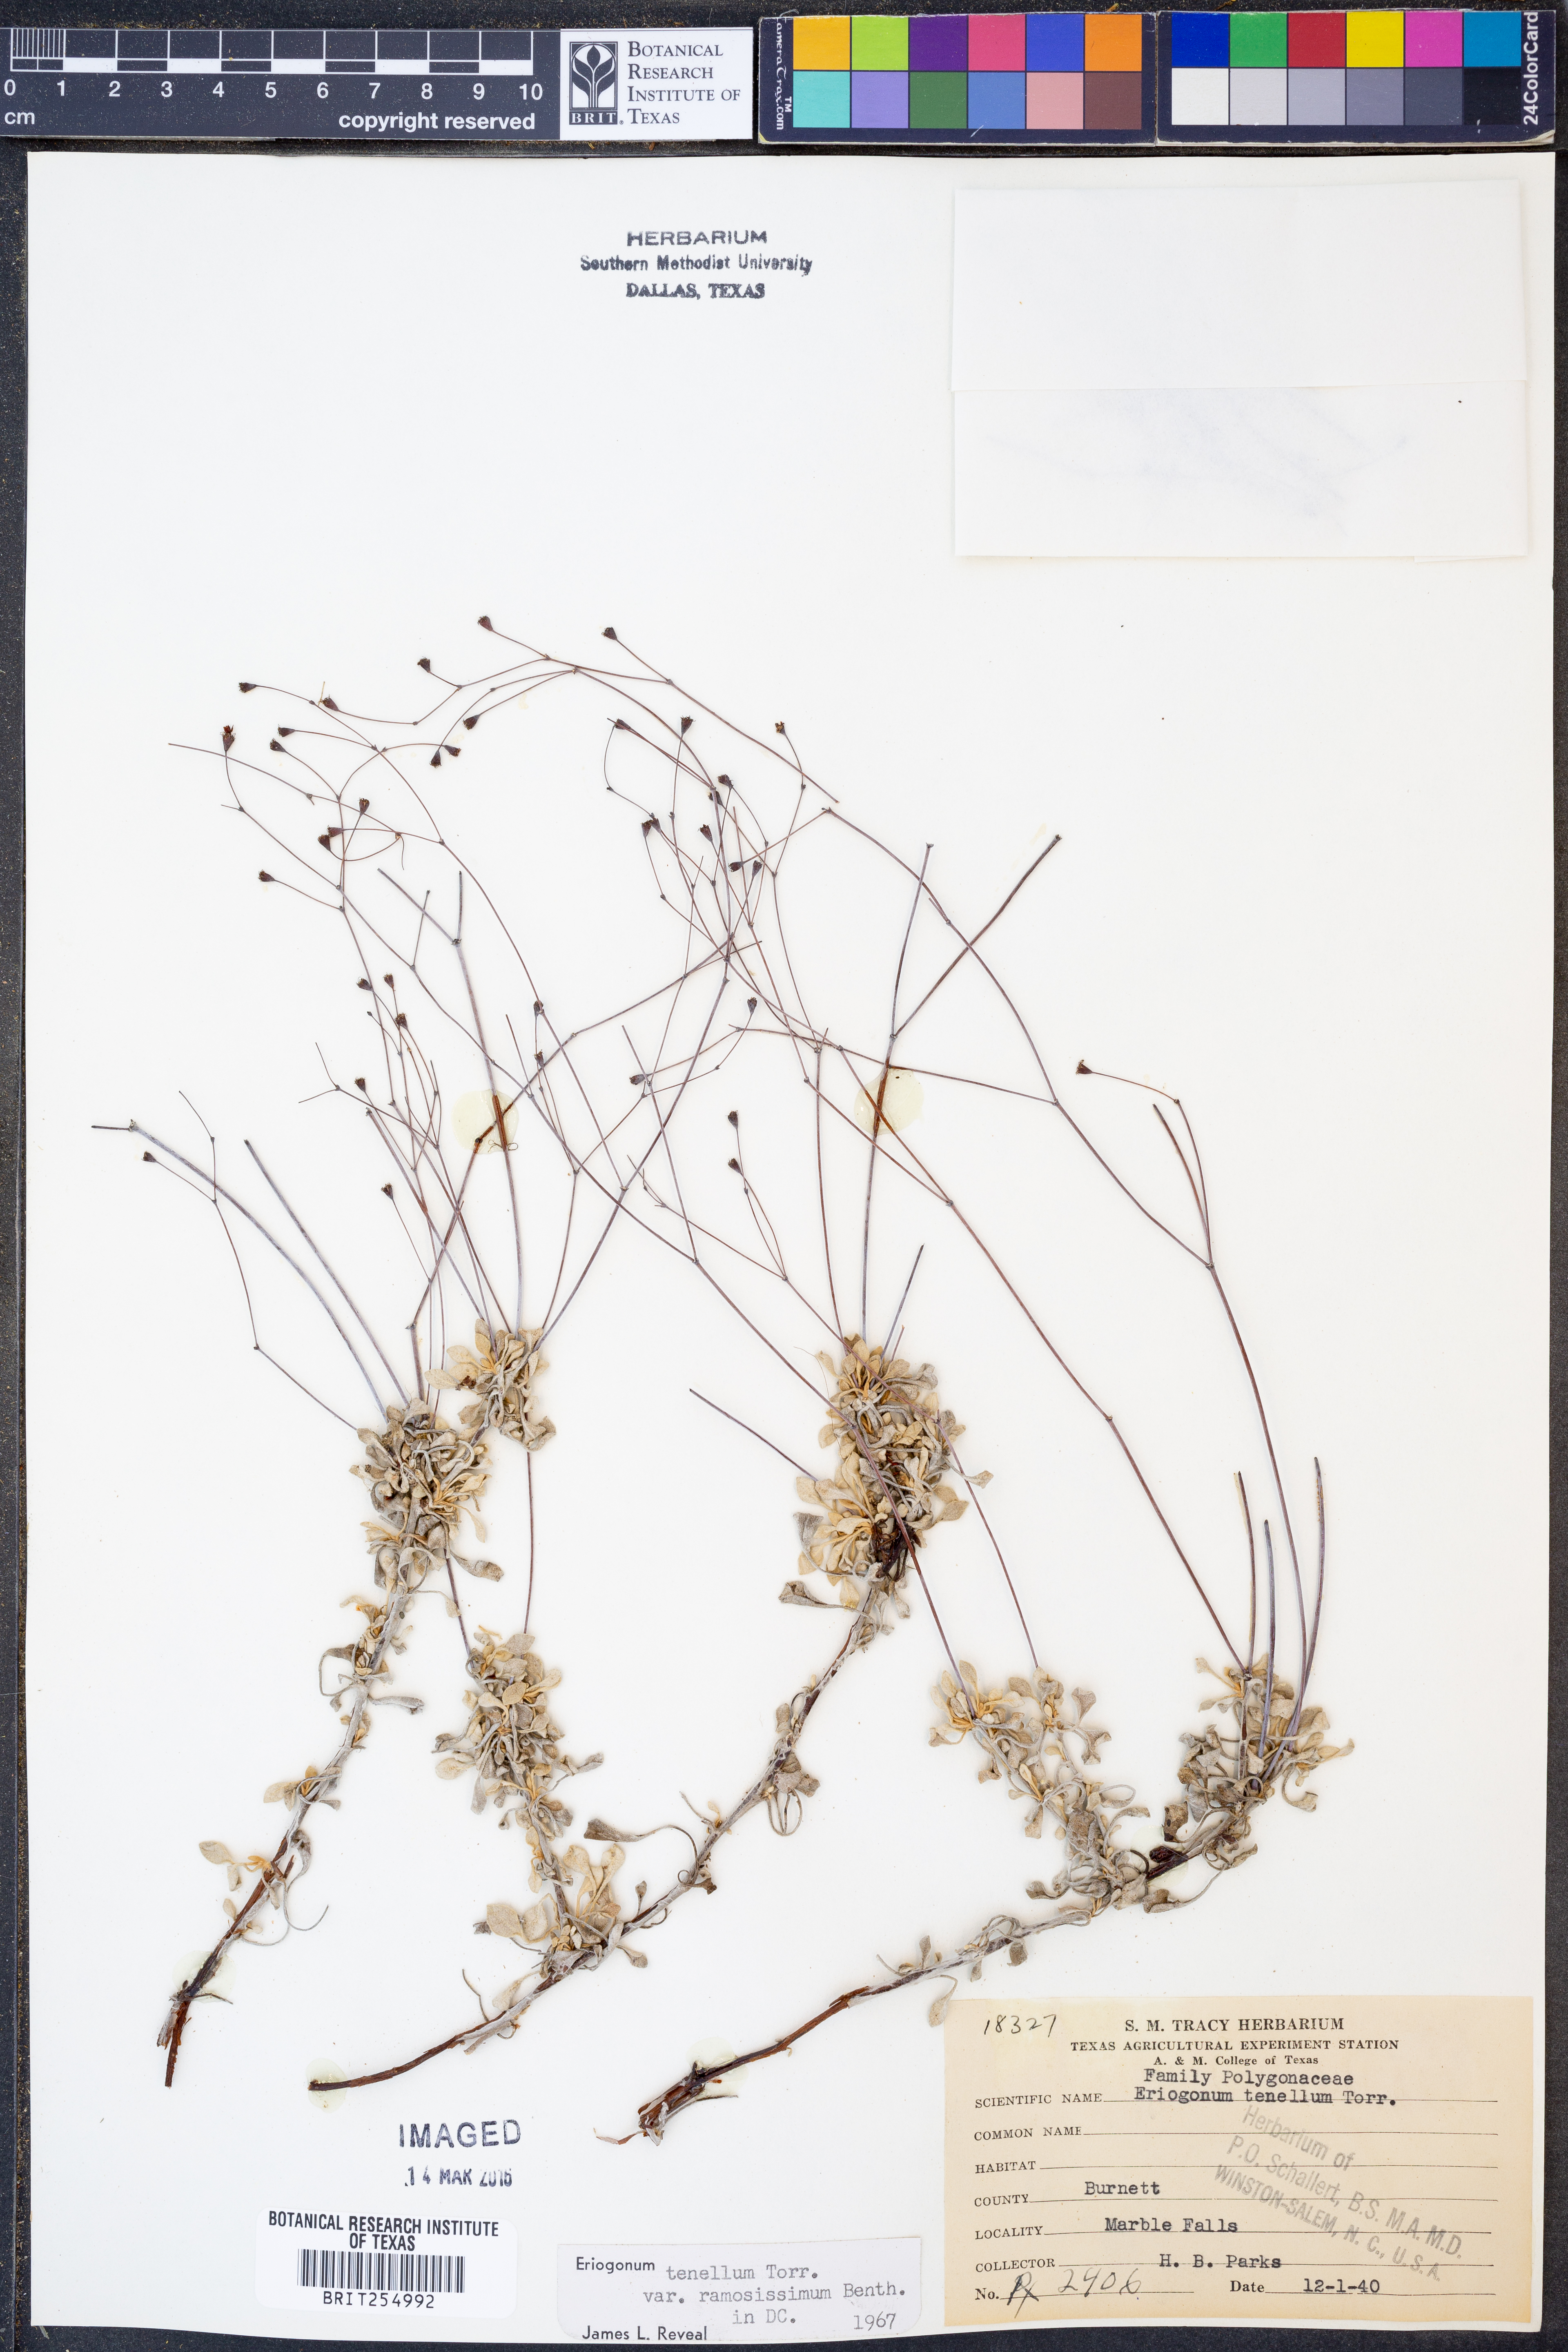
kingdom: Plantae
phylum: Tracheophyta
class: Magnoliopsida
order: Caryophyllales
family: Polygonaceae
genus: Eriogonum
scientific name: Eriogonum graniticum
